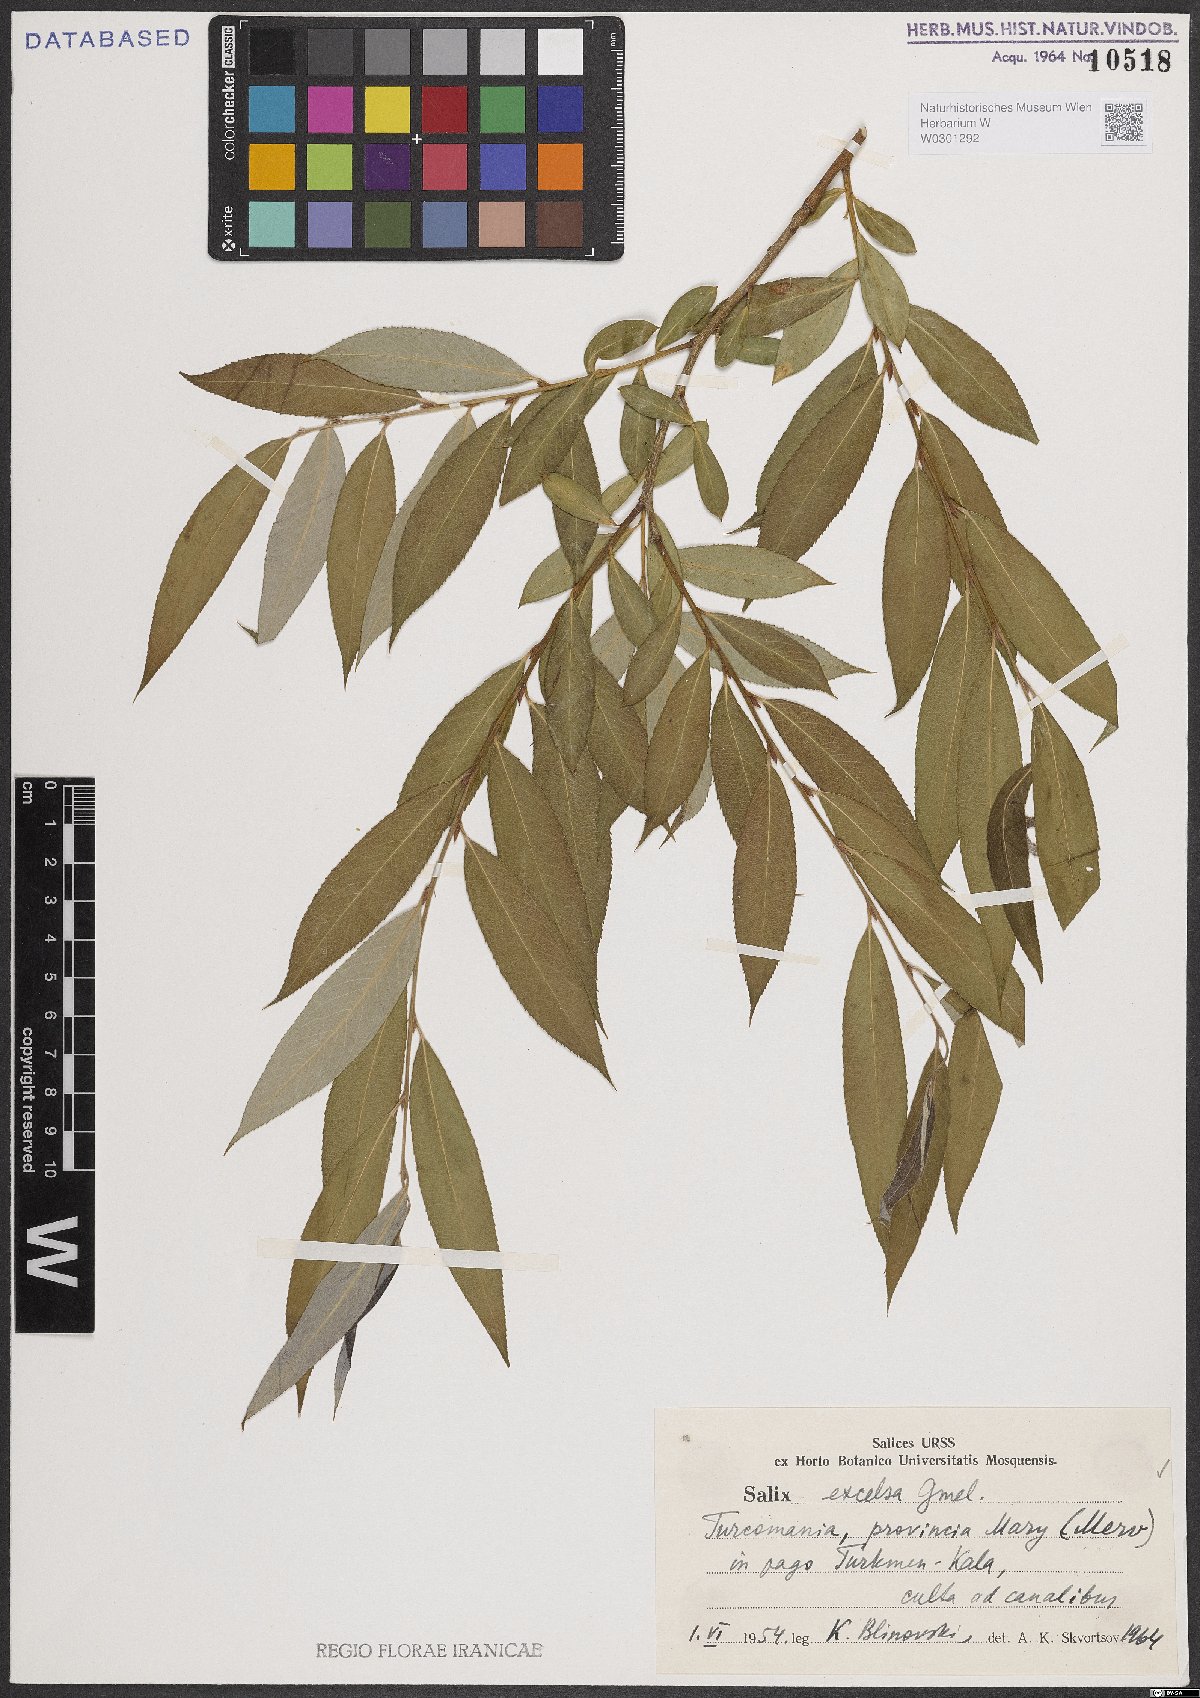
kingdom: Plantae
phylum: Tracheophyta
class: Magnoliopsida
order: Malpighiales
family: Salicaceae
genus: Salix
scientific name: Salix excelsa
